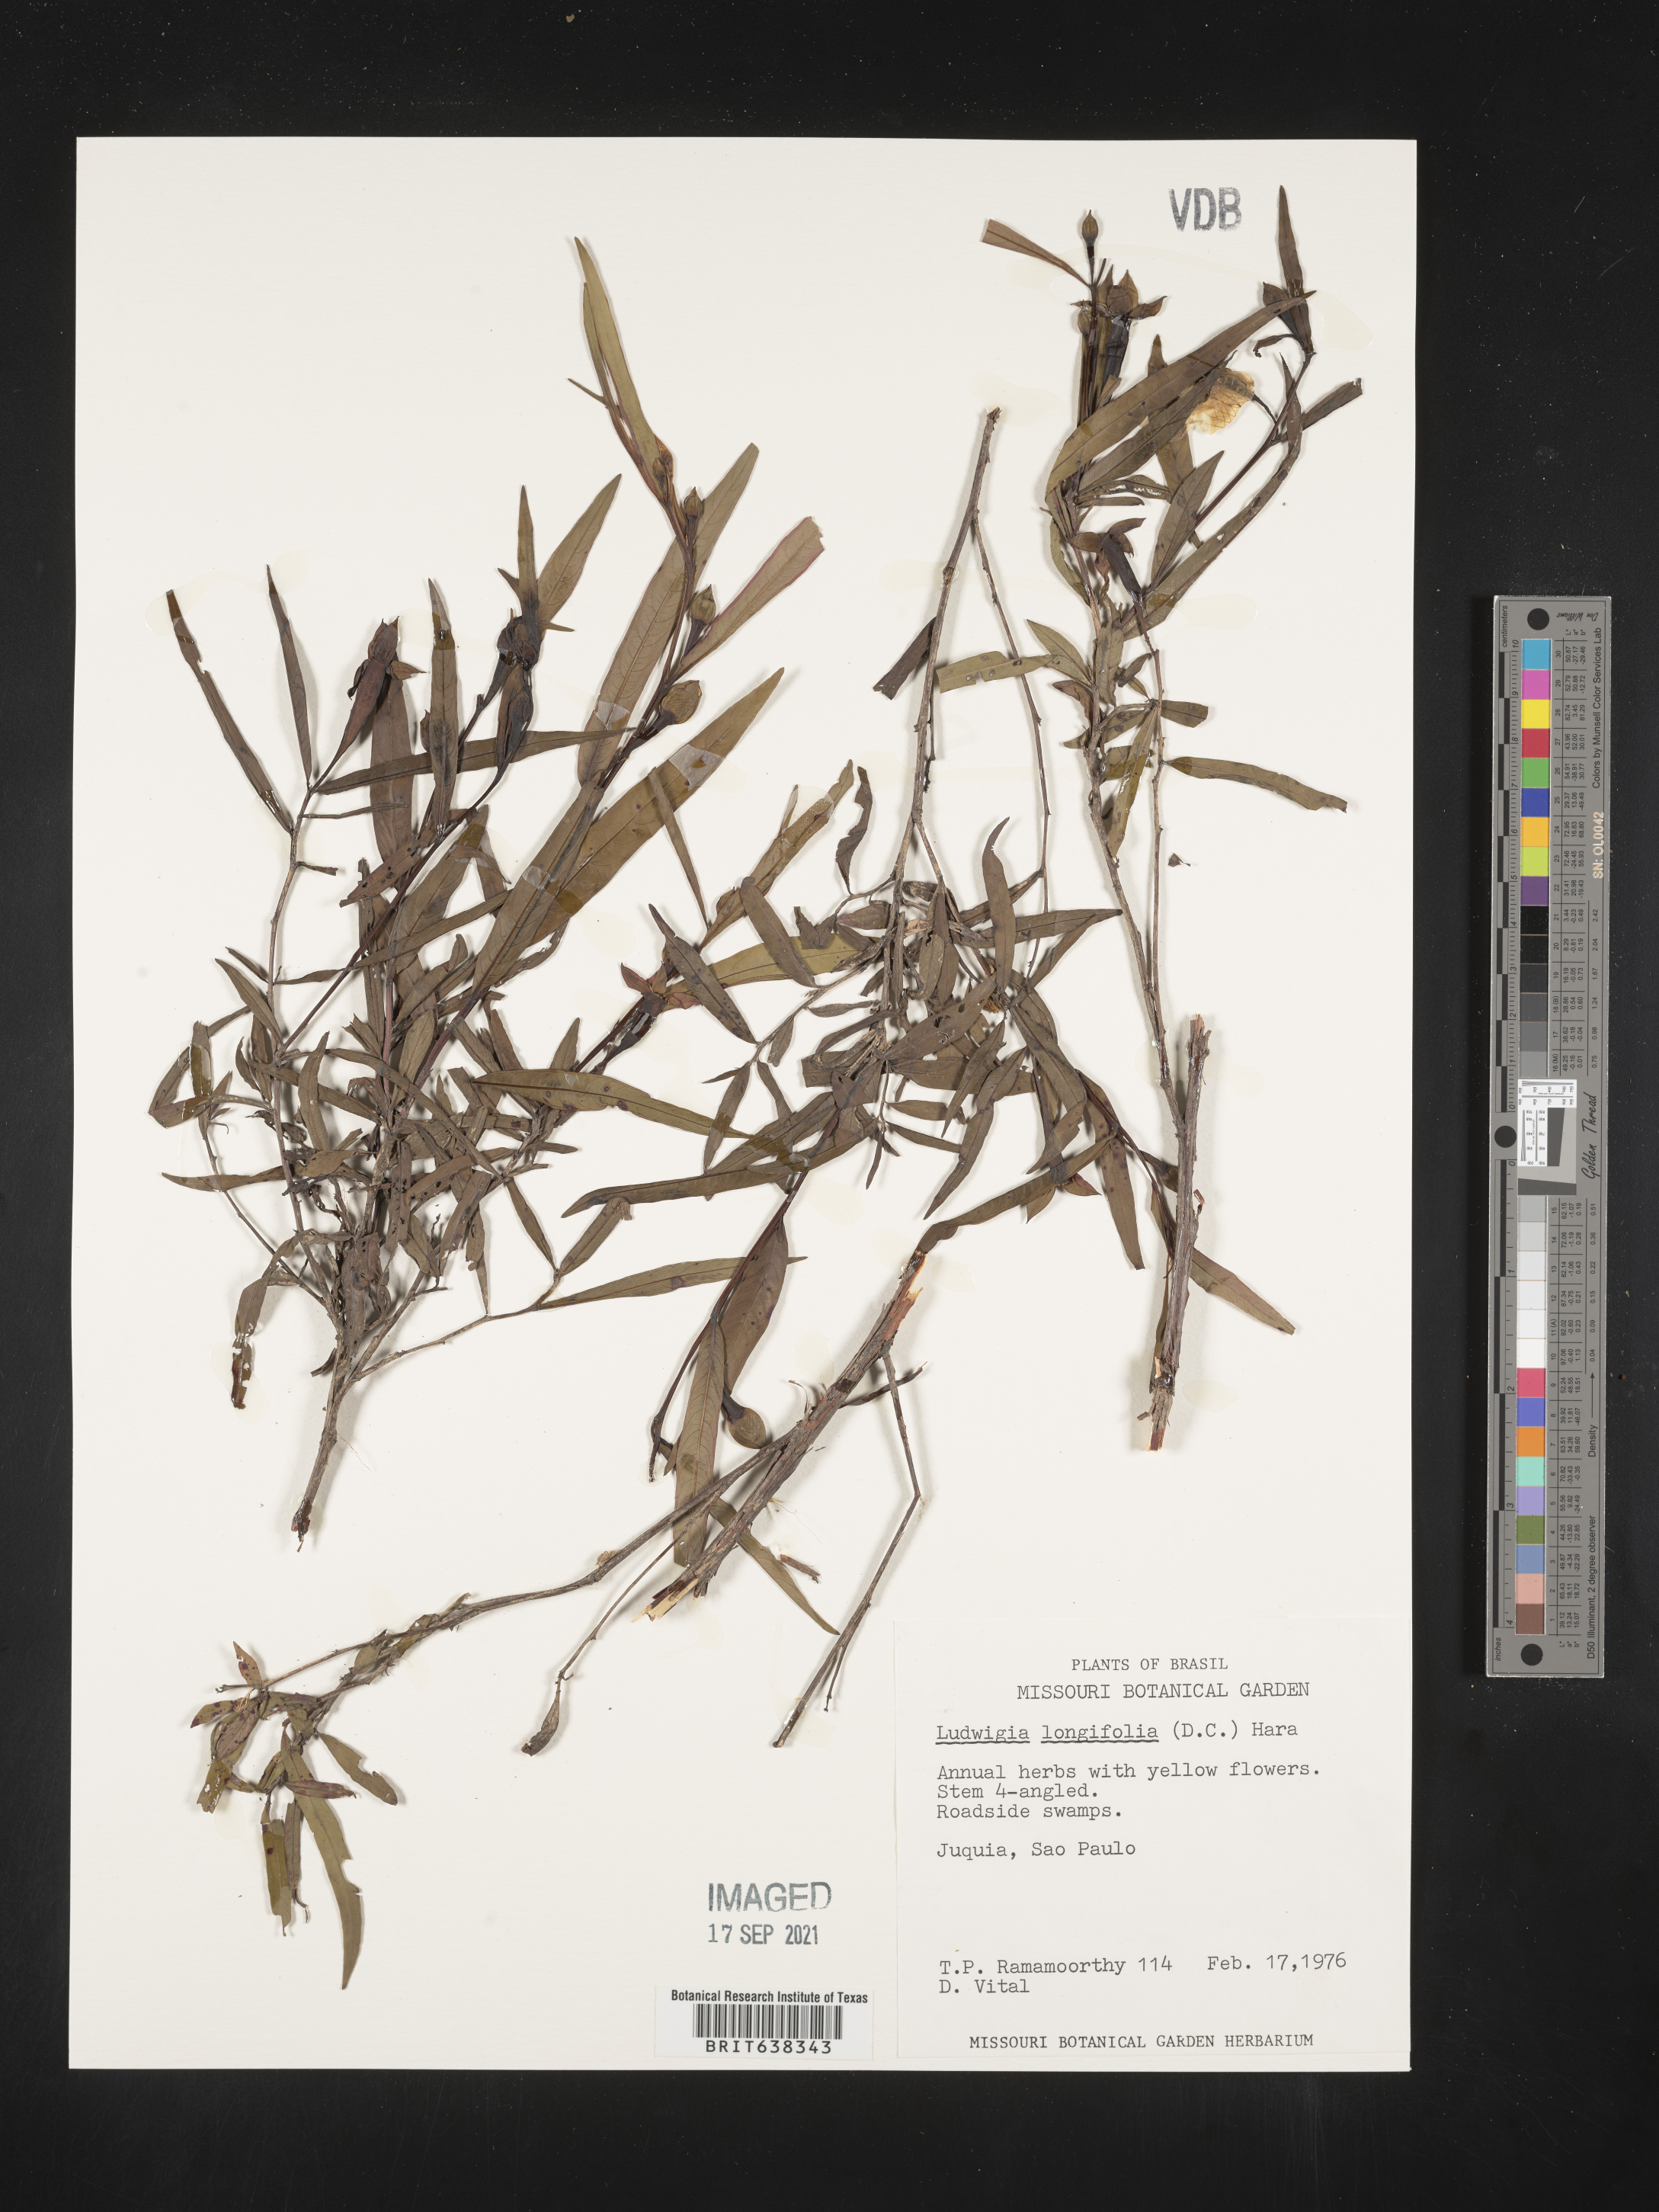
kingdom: Plantae
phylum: Tracheophyta
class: Magnoliopsida
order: Myrtales
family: Onagraceae
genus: Ludwigia
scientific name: Ludwigia
